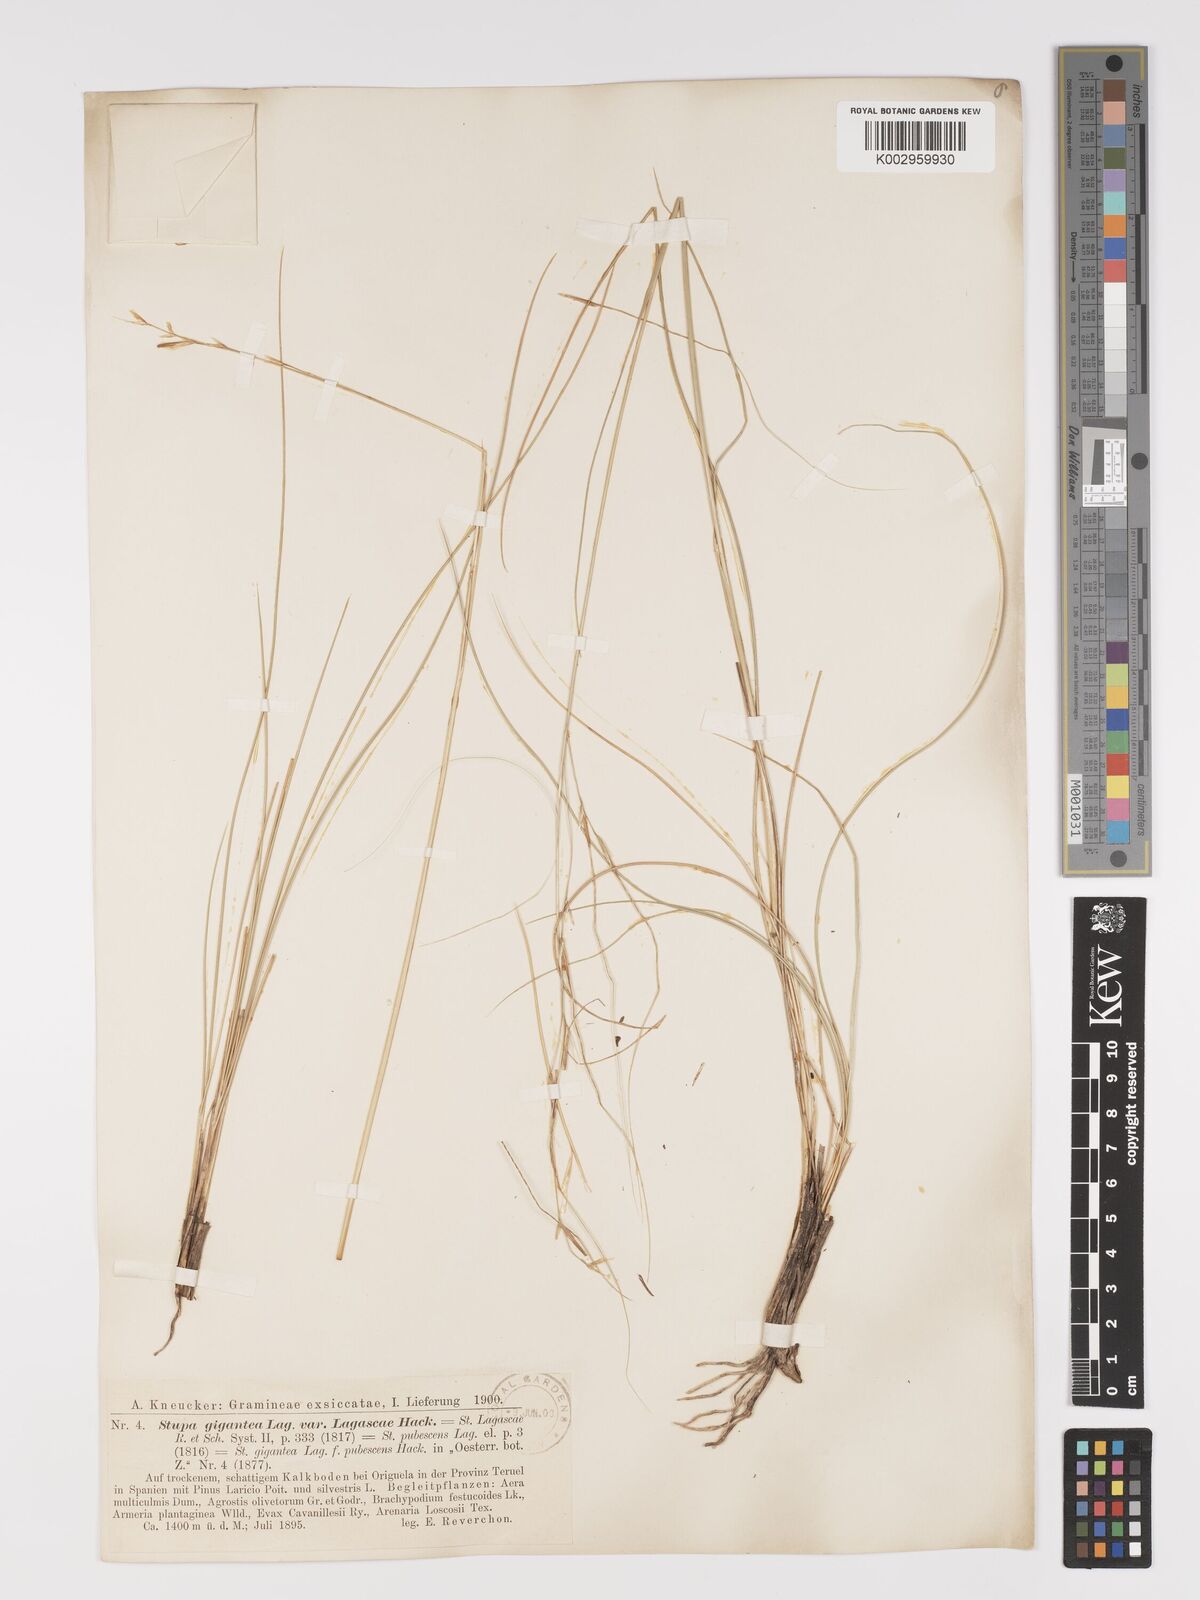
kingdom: Plantae
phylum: Tracheophyta
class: Liliopsida
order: Poales
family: Poaceae
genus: Stipa
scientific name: Stipa
